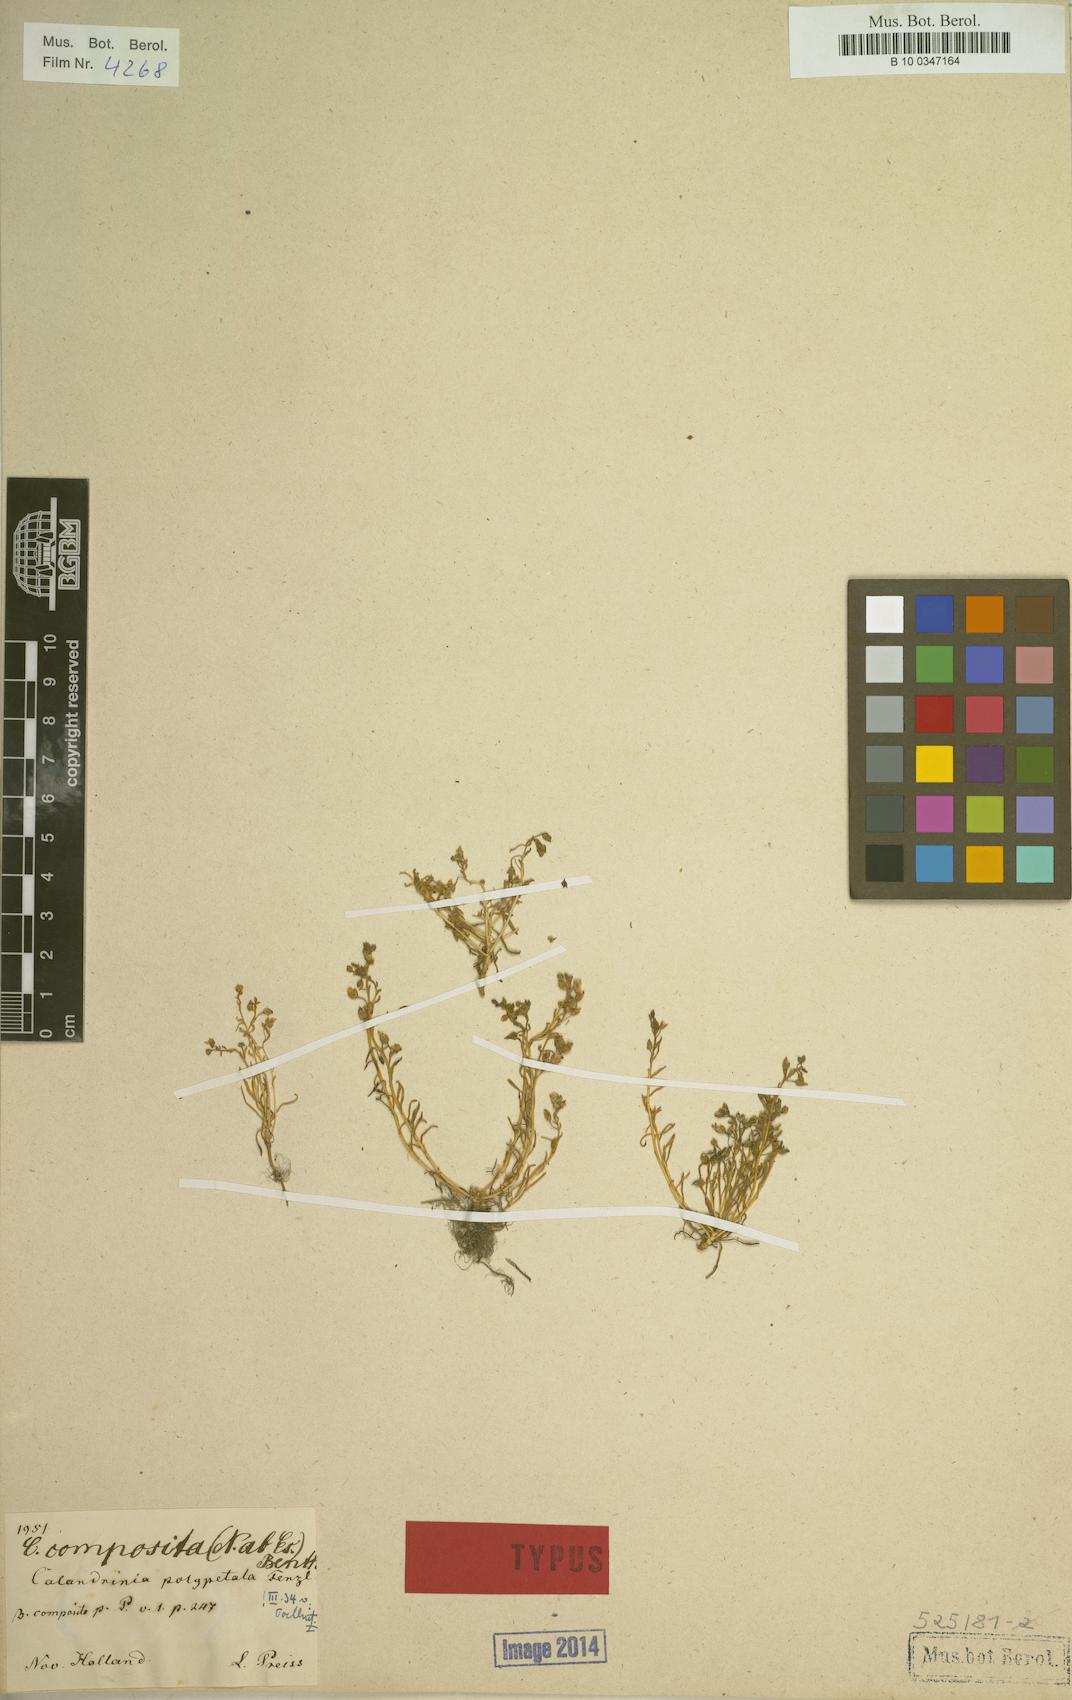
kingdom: Plantae
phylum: Tracheophyta
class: Magnoliopsida
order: Caryophyllales
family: Montiaceae
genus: Rumicastrum
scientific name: Rumicastrum polypetalum
